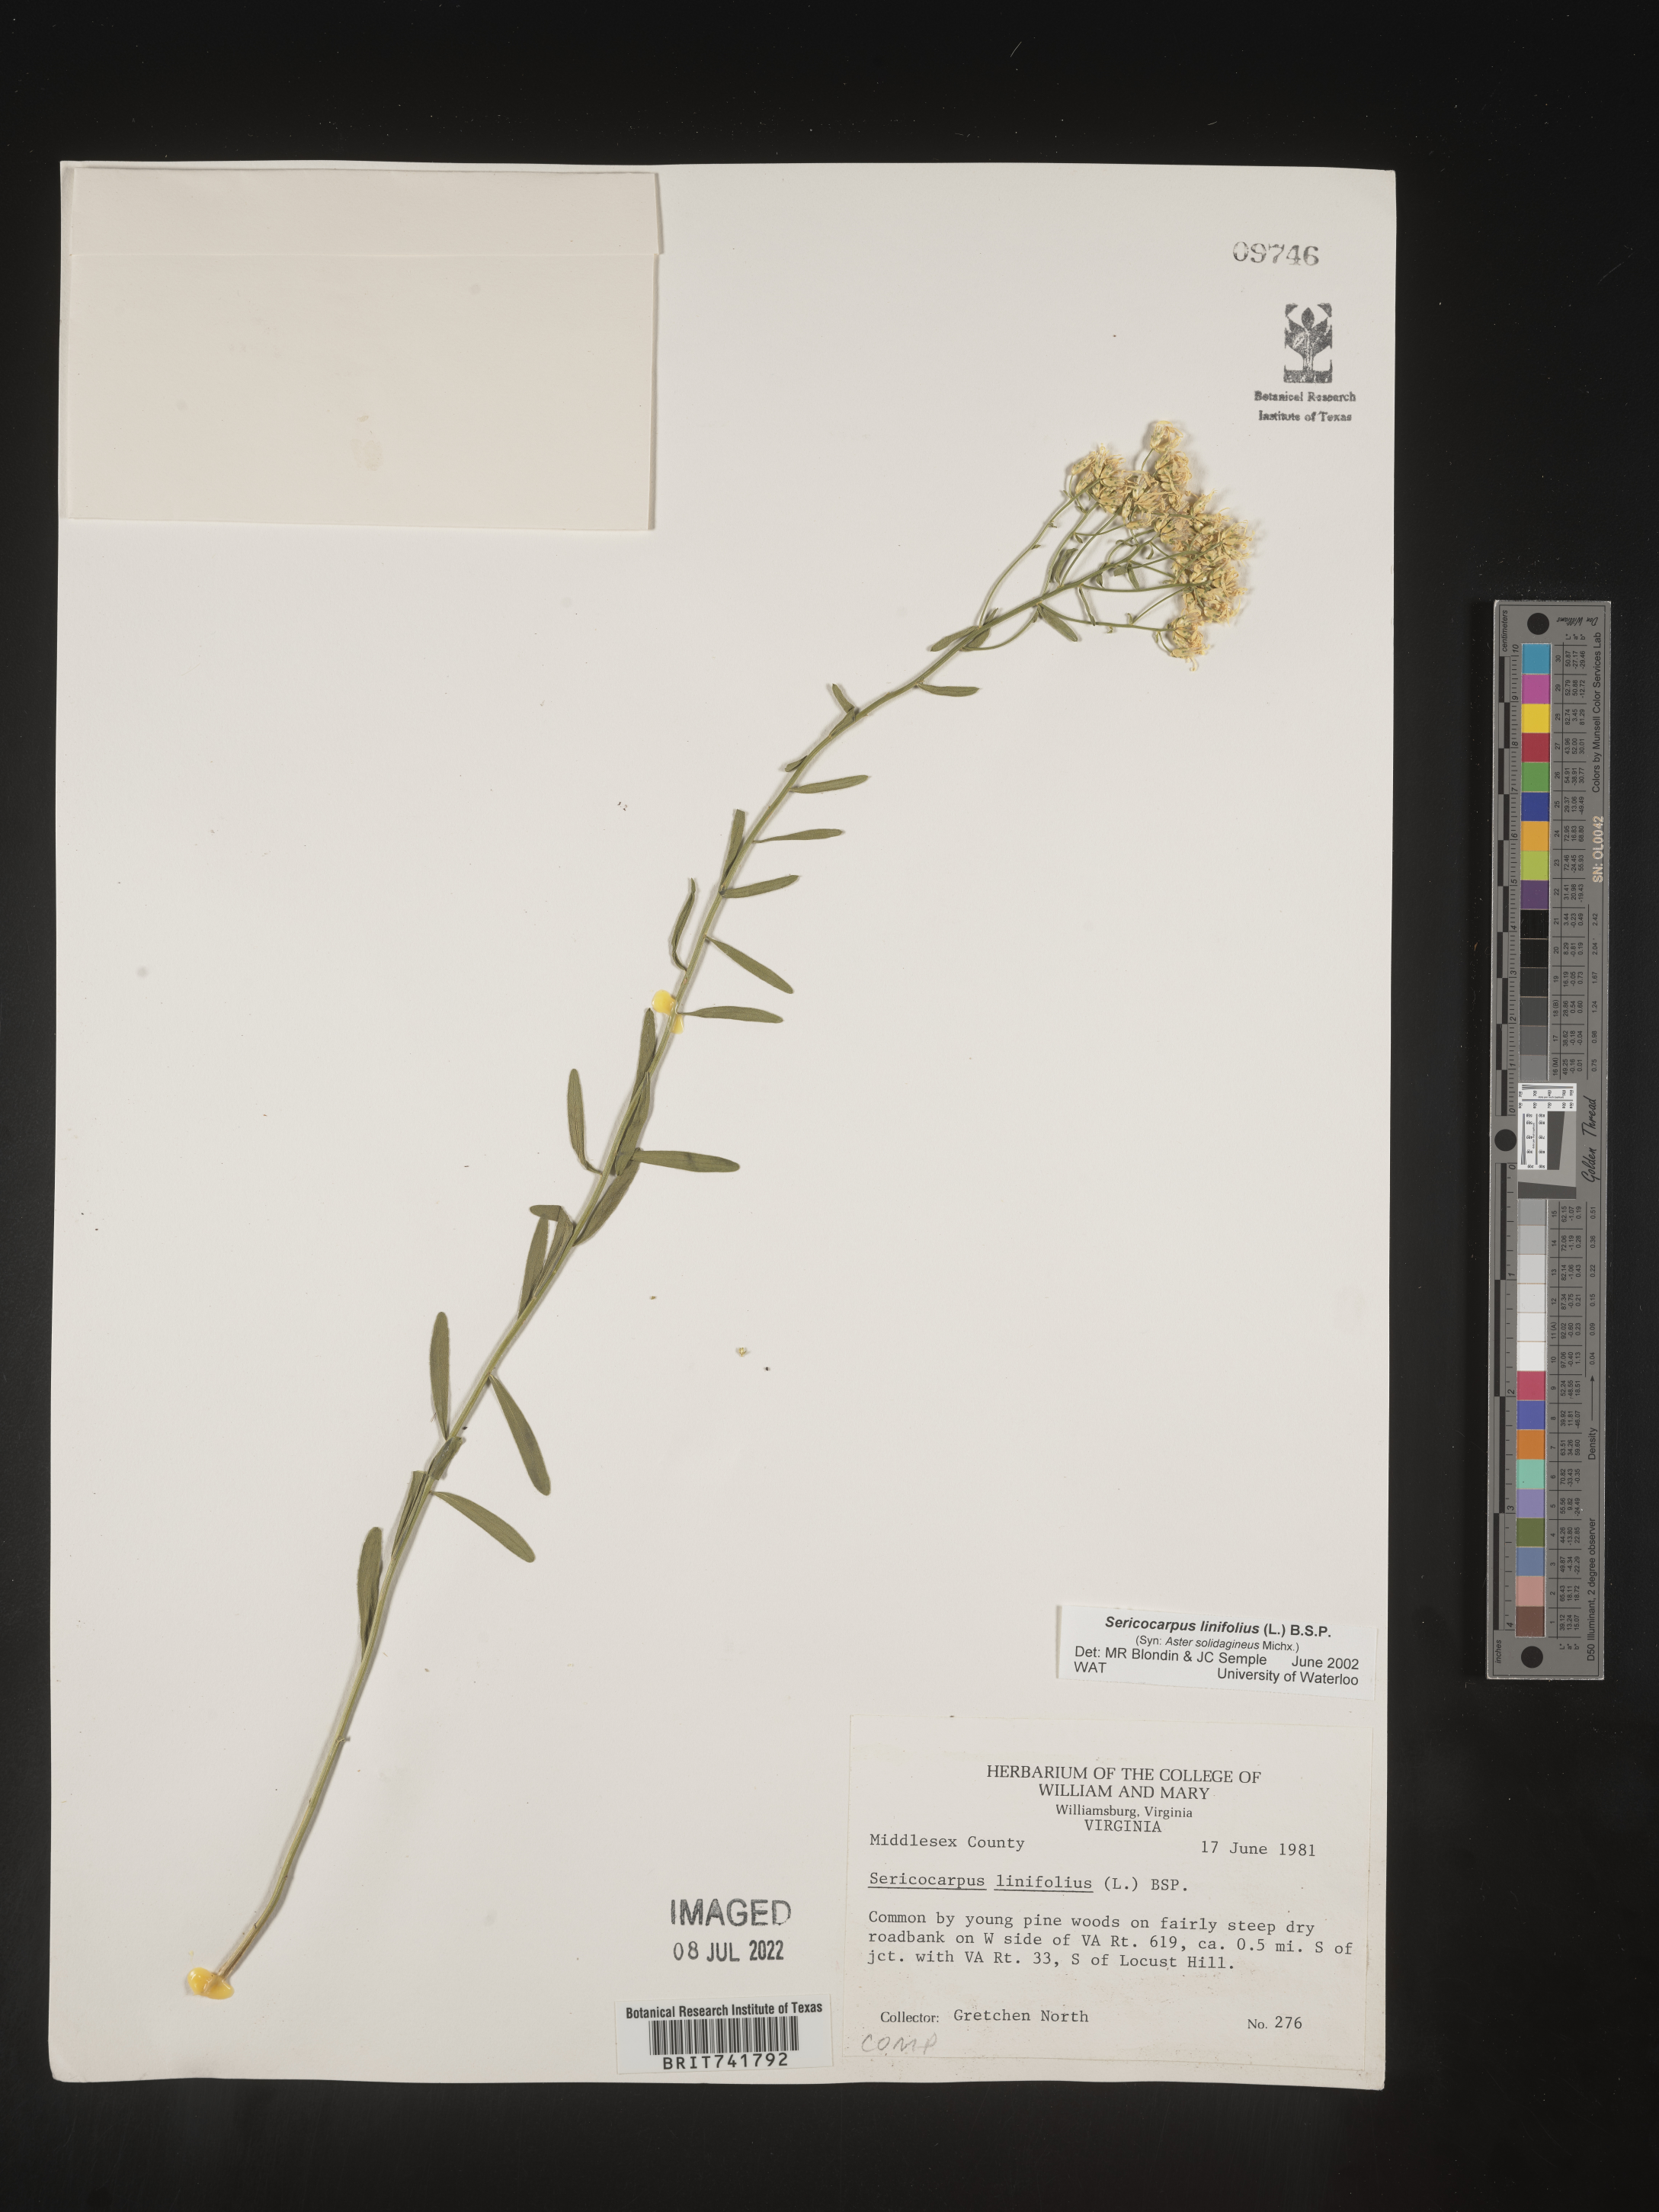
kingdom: Plantae
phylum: Tracheophyta
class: Magnoliopsida
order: Asterales
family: Asteraceae
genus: Sericocarpus
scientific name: Sericocarpus linifolius
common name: Narrow-leaf aster
